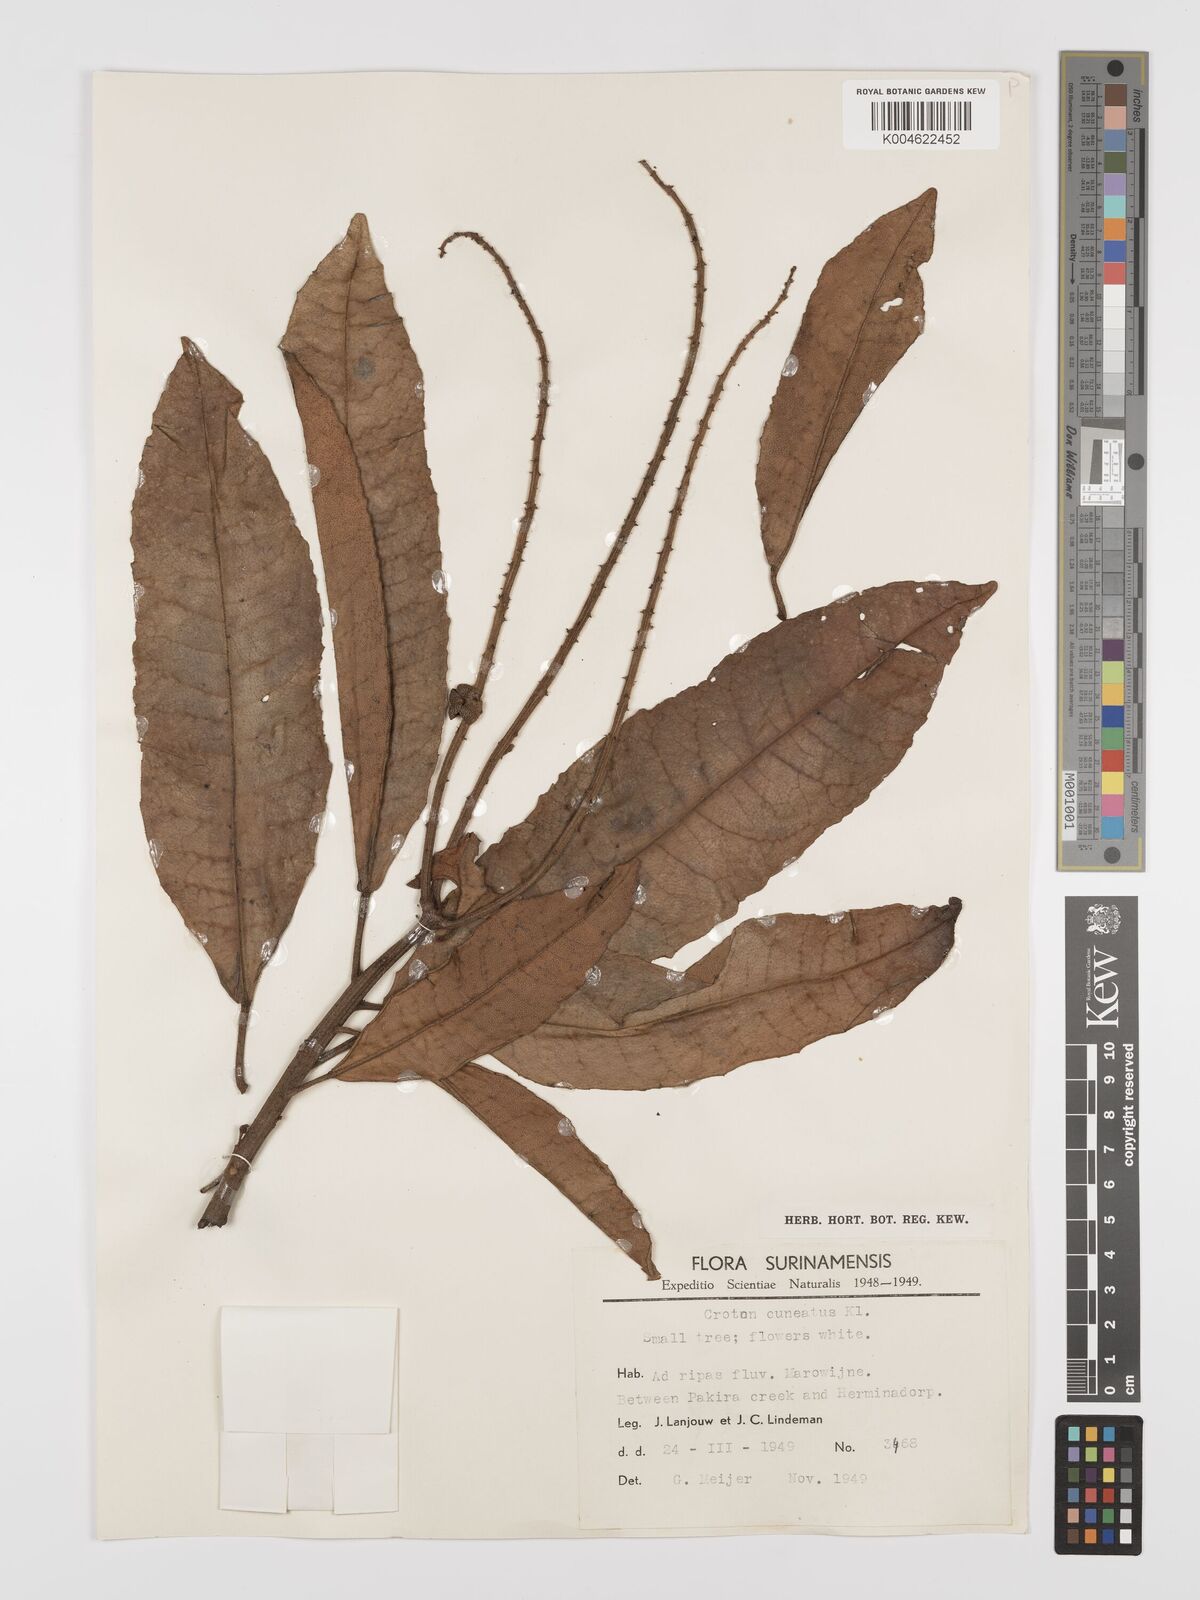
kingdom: Plantae
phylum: Tracheophyta
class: Magnoliopsida
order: Malpighiales
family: Euphorbiaceae
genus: Croton
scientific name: Croton
